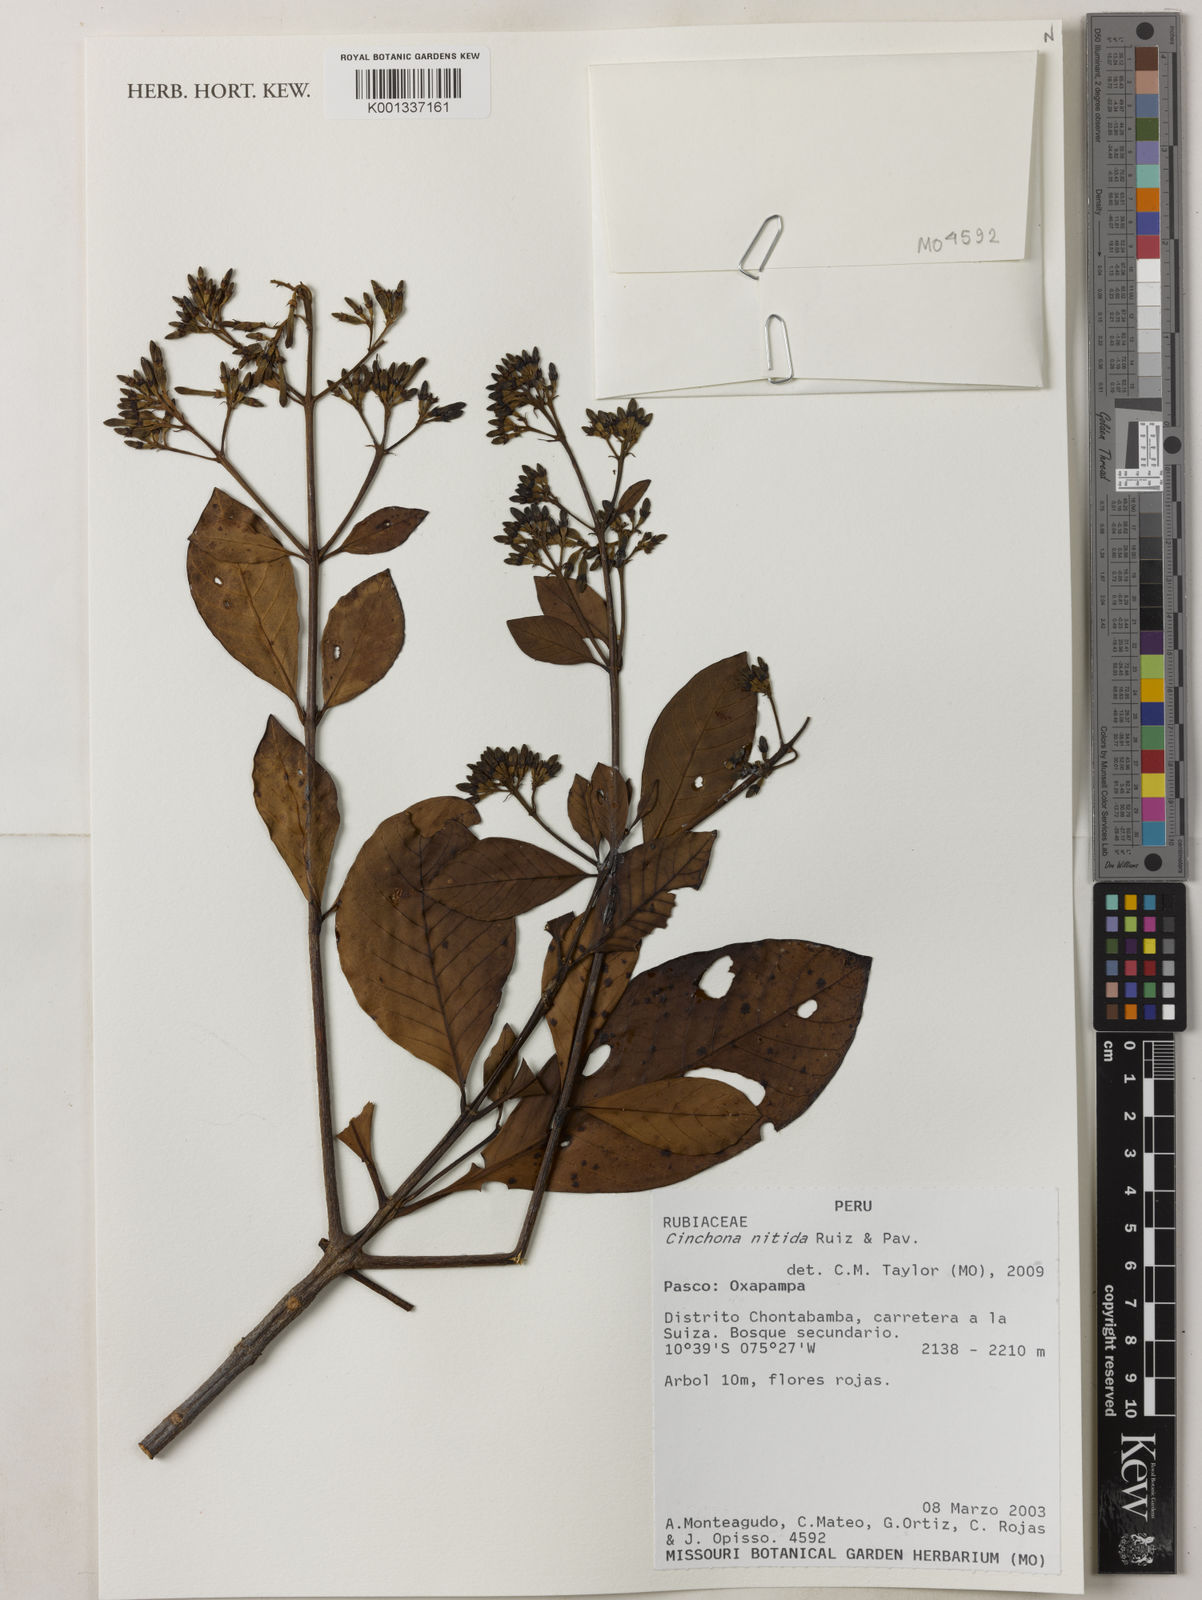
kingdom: Plantae
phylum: Tracheophyta
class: Magnoliopsida
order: Gentianales
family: Rubiaceae
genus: Cinchona
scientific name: Cinchona nitida
